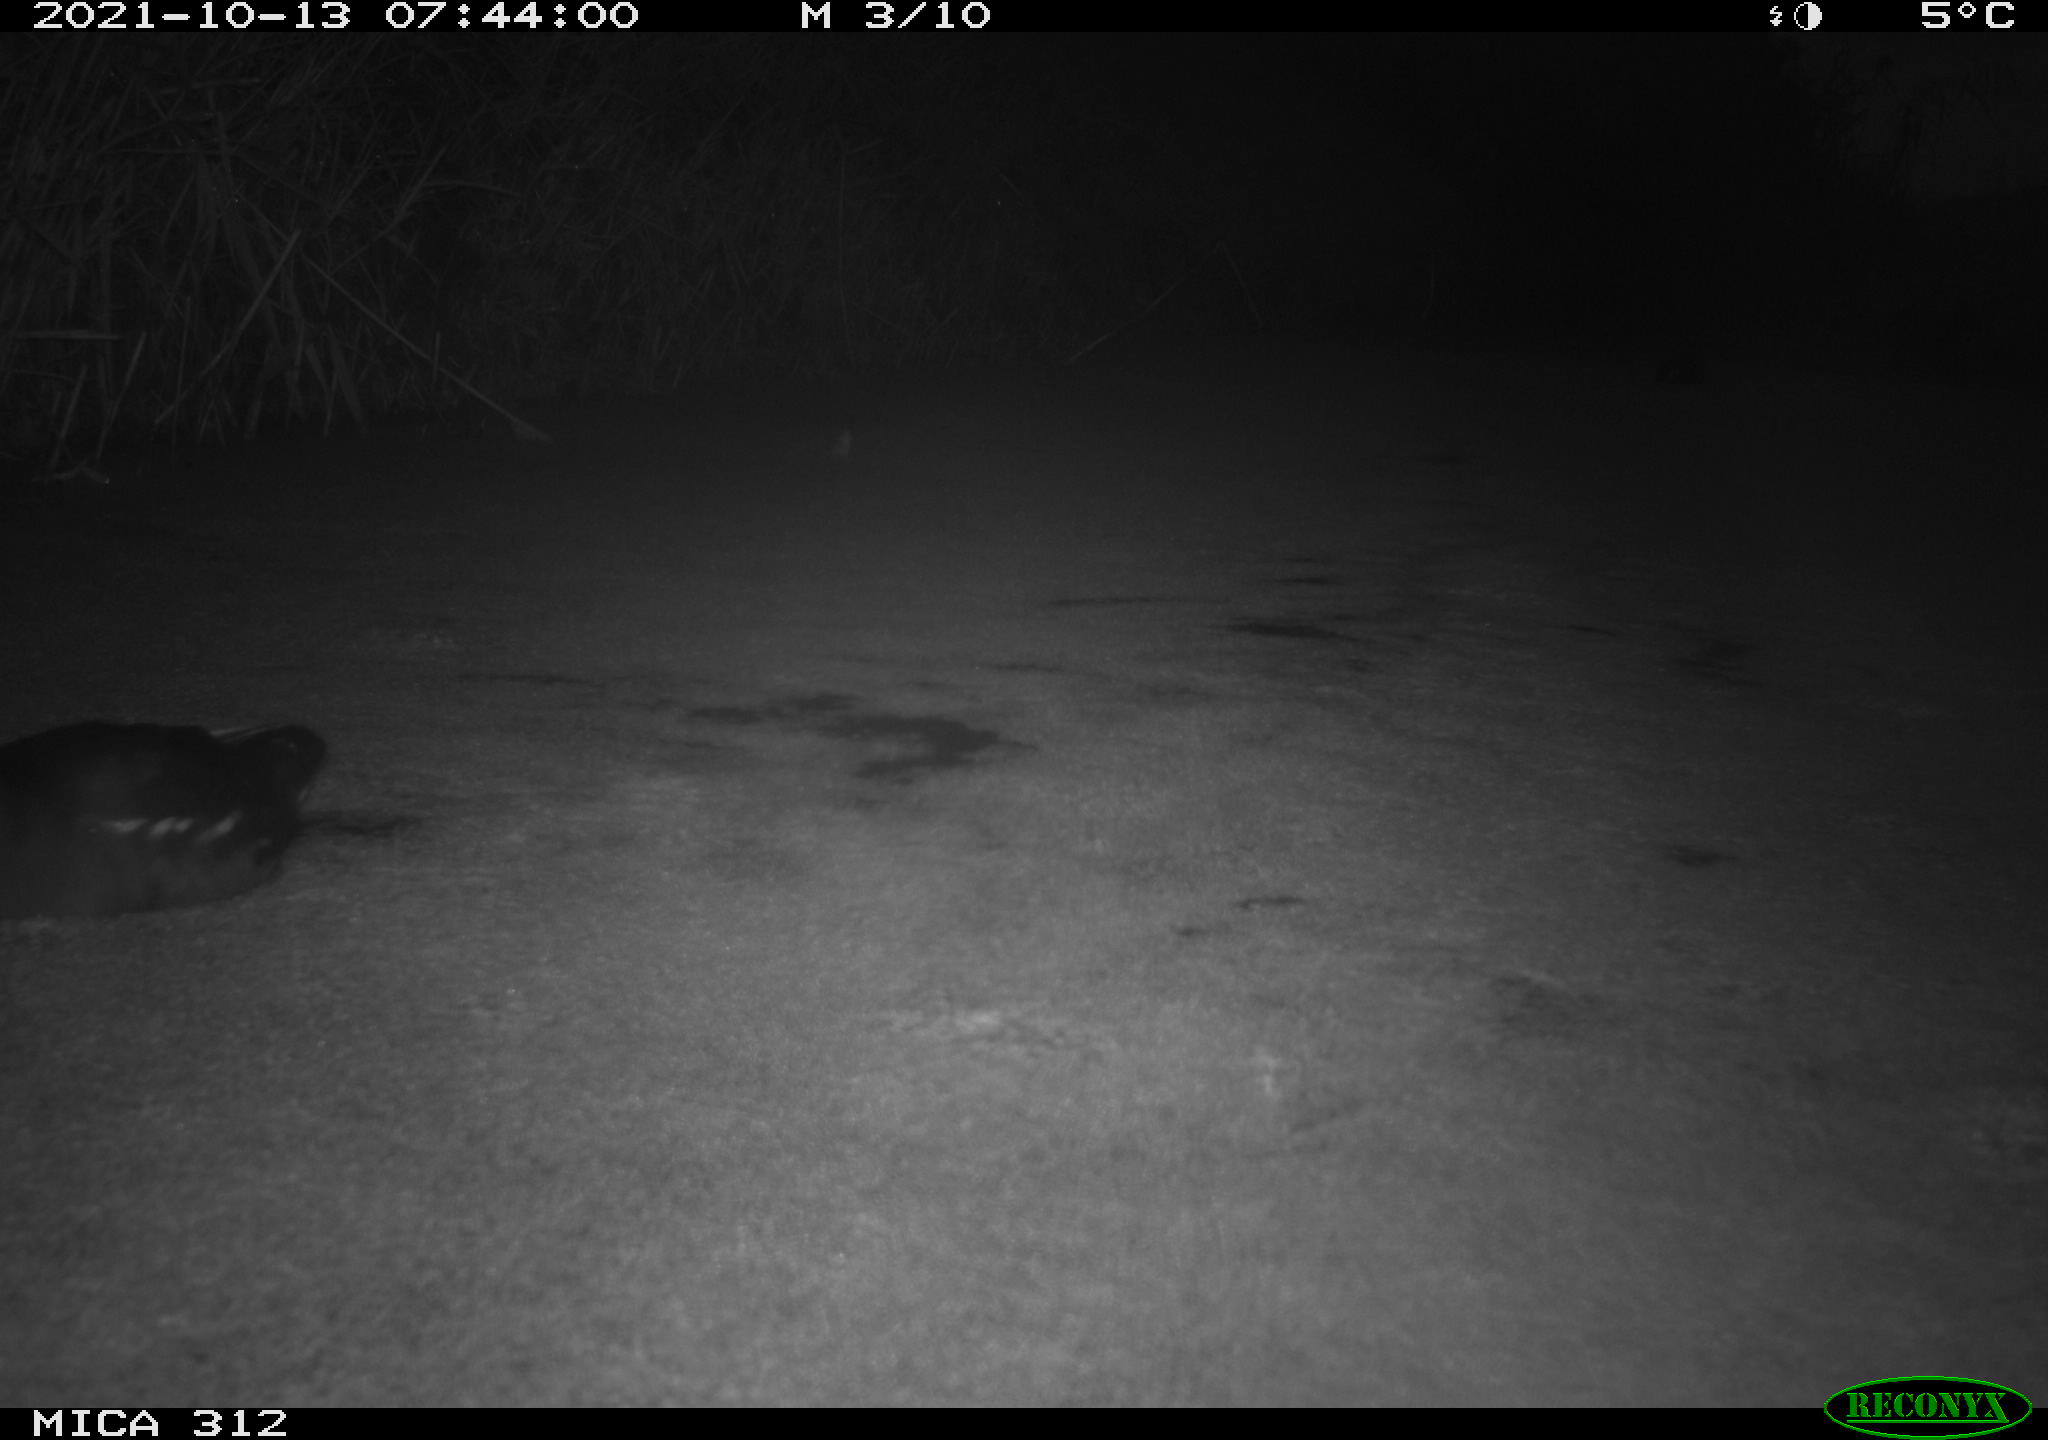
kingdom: Animalia
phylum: Chordata
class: Aves
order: Gruiformes
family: Rallidae
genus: Fulica
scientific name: Fulica atra
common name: Eurasian coot
